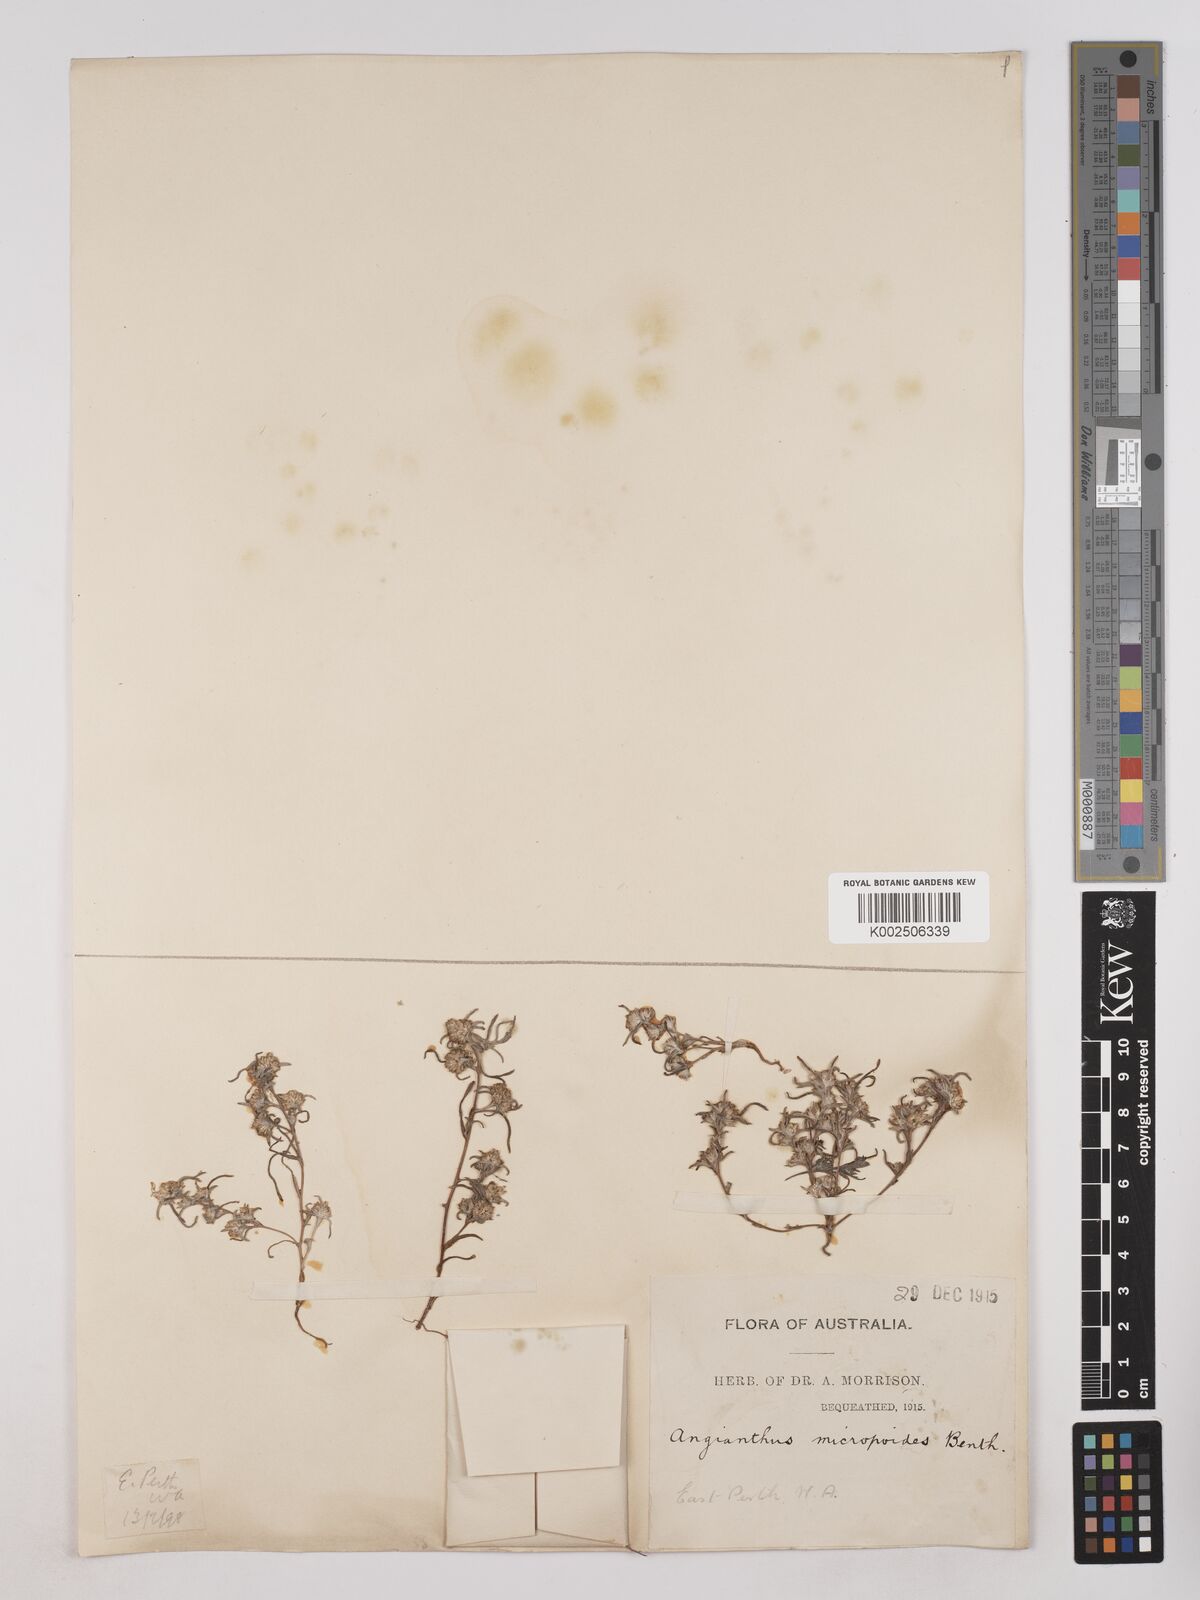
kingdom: Plantae
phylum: Tracheophyta
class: Magnoliopsida
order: Asterales
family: Asteraceae
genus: Angianthus
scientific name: Angianthus micropodioides
